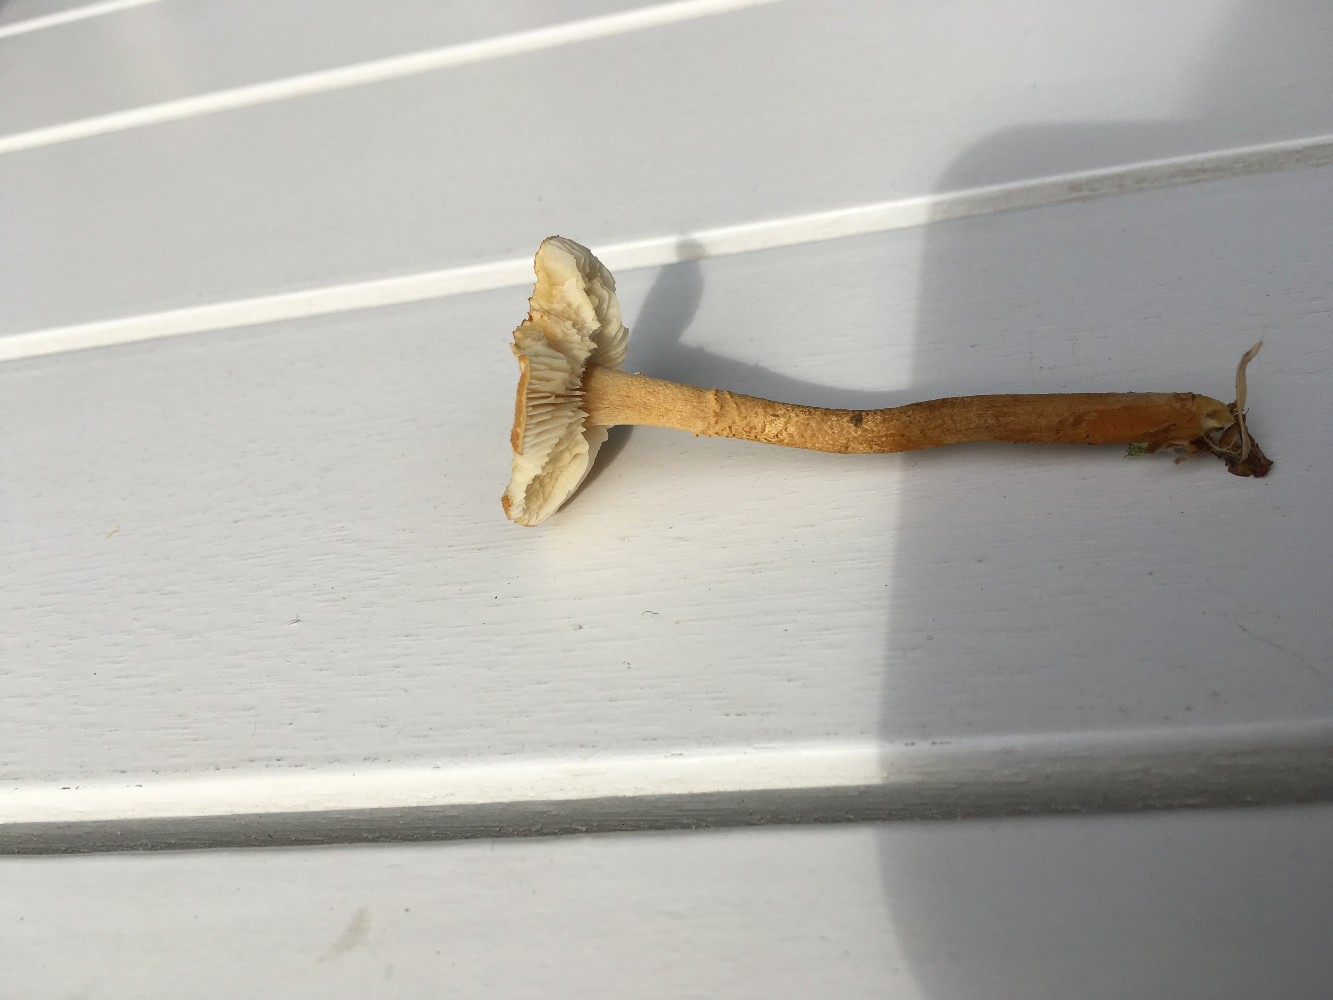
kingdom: Fungi
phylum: Basidiomycota
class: Agaricomycetes
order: Agaricales
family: Tricholomataceae
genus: Cystoderma
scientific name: Cystoderma amianthinum
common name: okkergul grynhat
